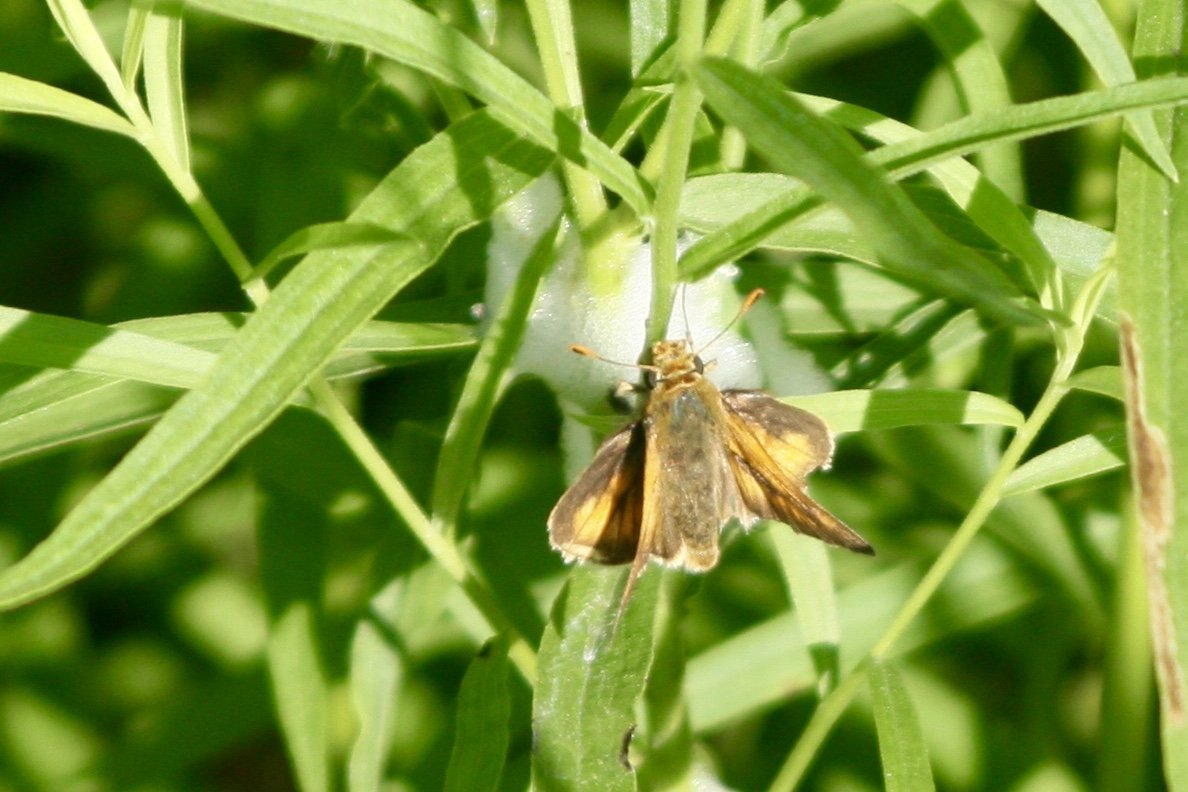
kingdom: Animalia
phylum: Arthropoda
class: Insecta
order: Lepidoptera
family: Hesperiidae
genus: Ancyloxypha
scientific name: Ancyloxypha numitor
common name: Least Skipper
